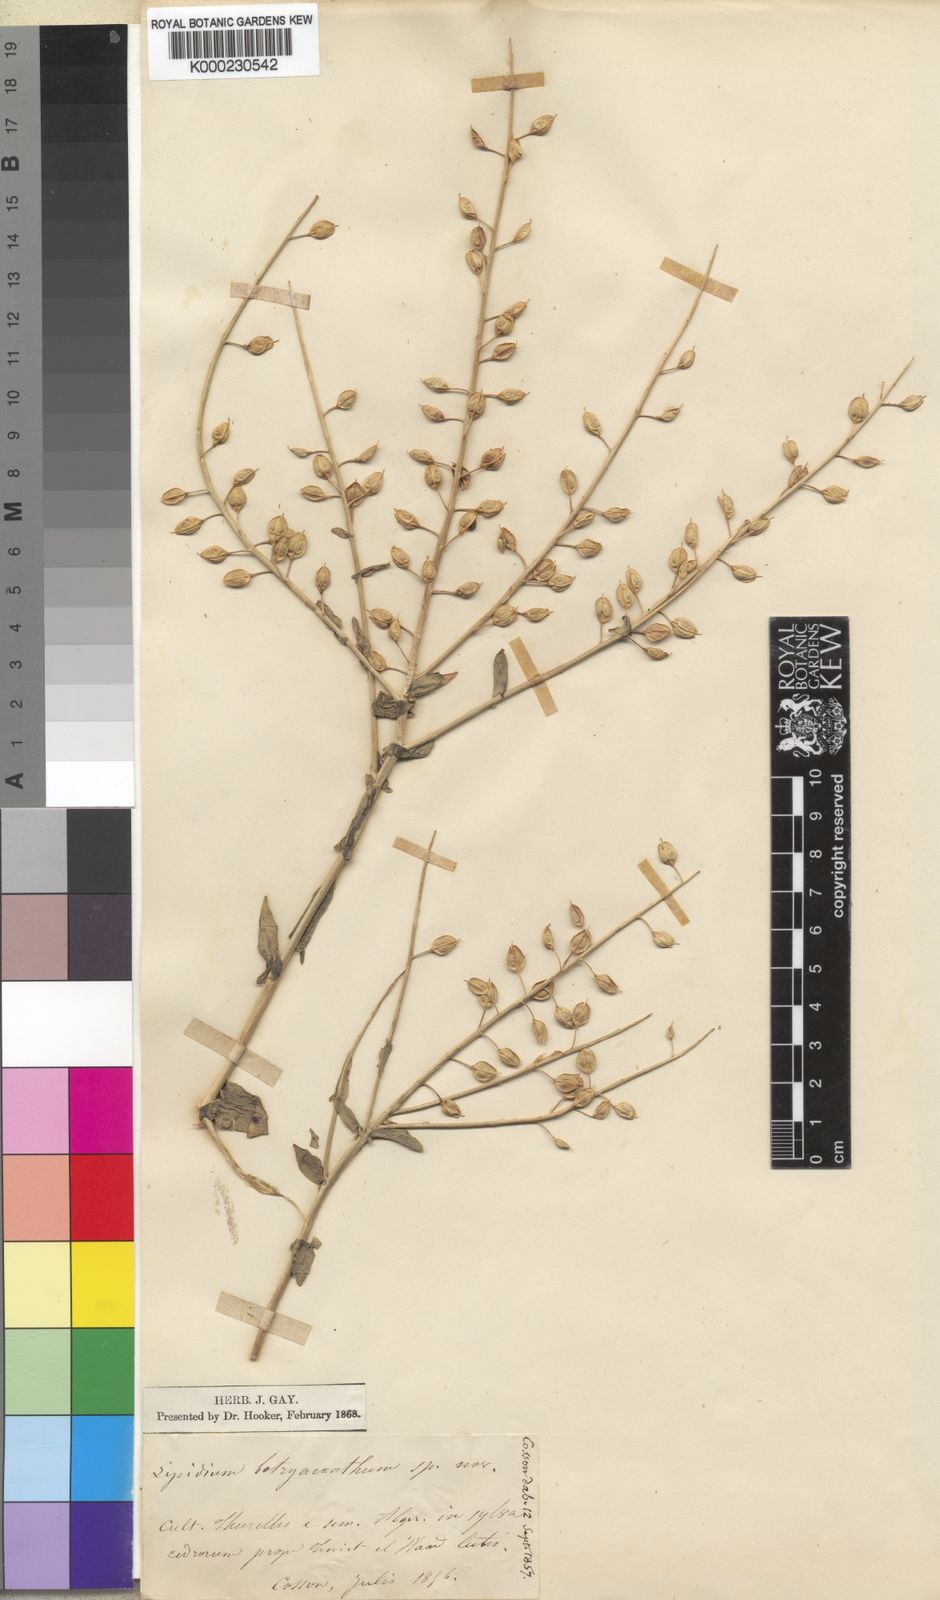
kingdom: Plantae
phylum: Tracheophyta
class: Magnoliopsida
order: Brassicales
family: Brassicaceae
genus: Lepidium
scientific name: Lepidium rigidum
